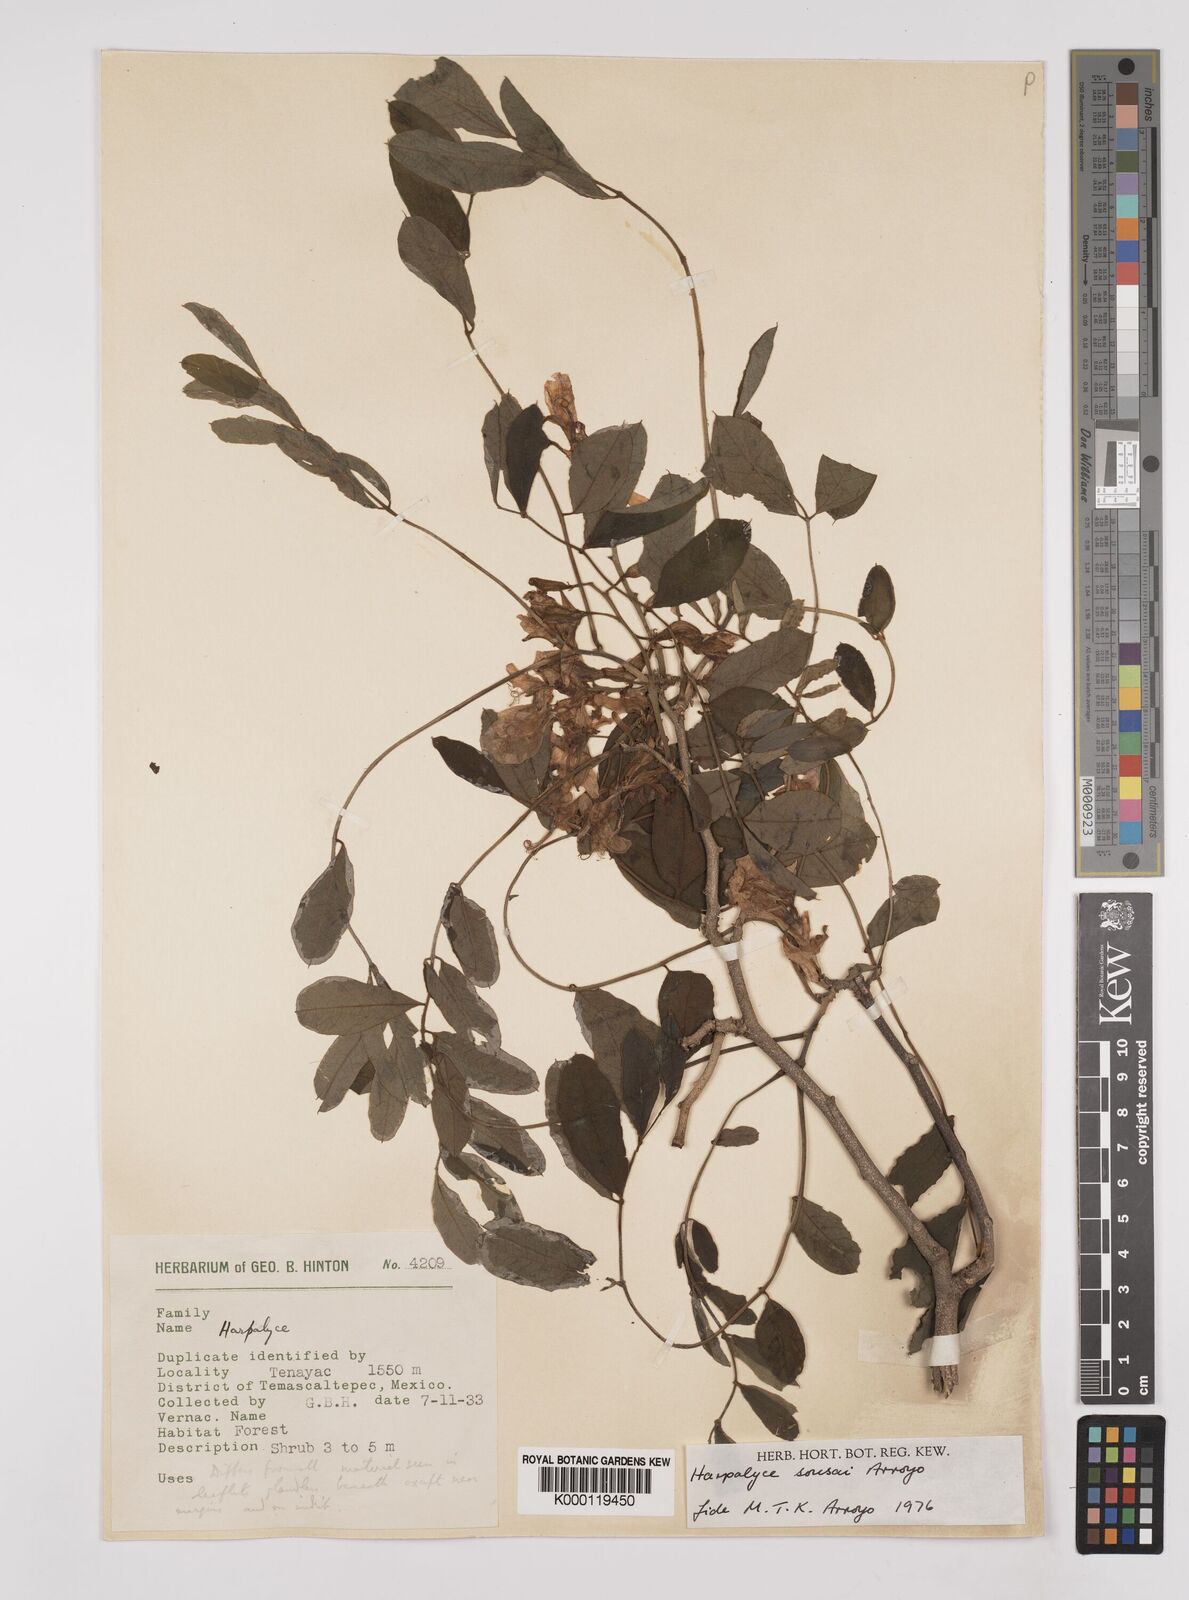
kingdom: Plantae
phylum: Tracheophyta
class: Magnoliopsida
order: Fabales
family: Fabaceae
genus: Harpalyce
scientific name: Harpalyce
